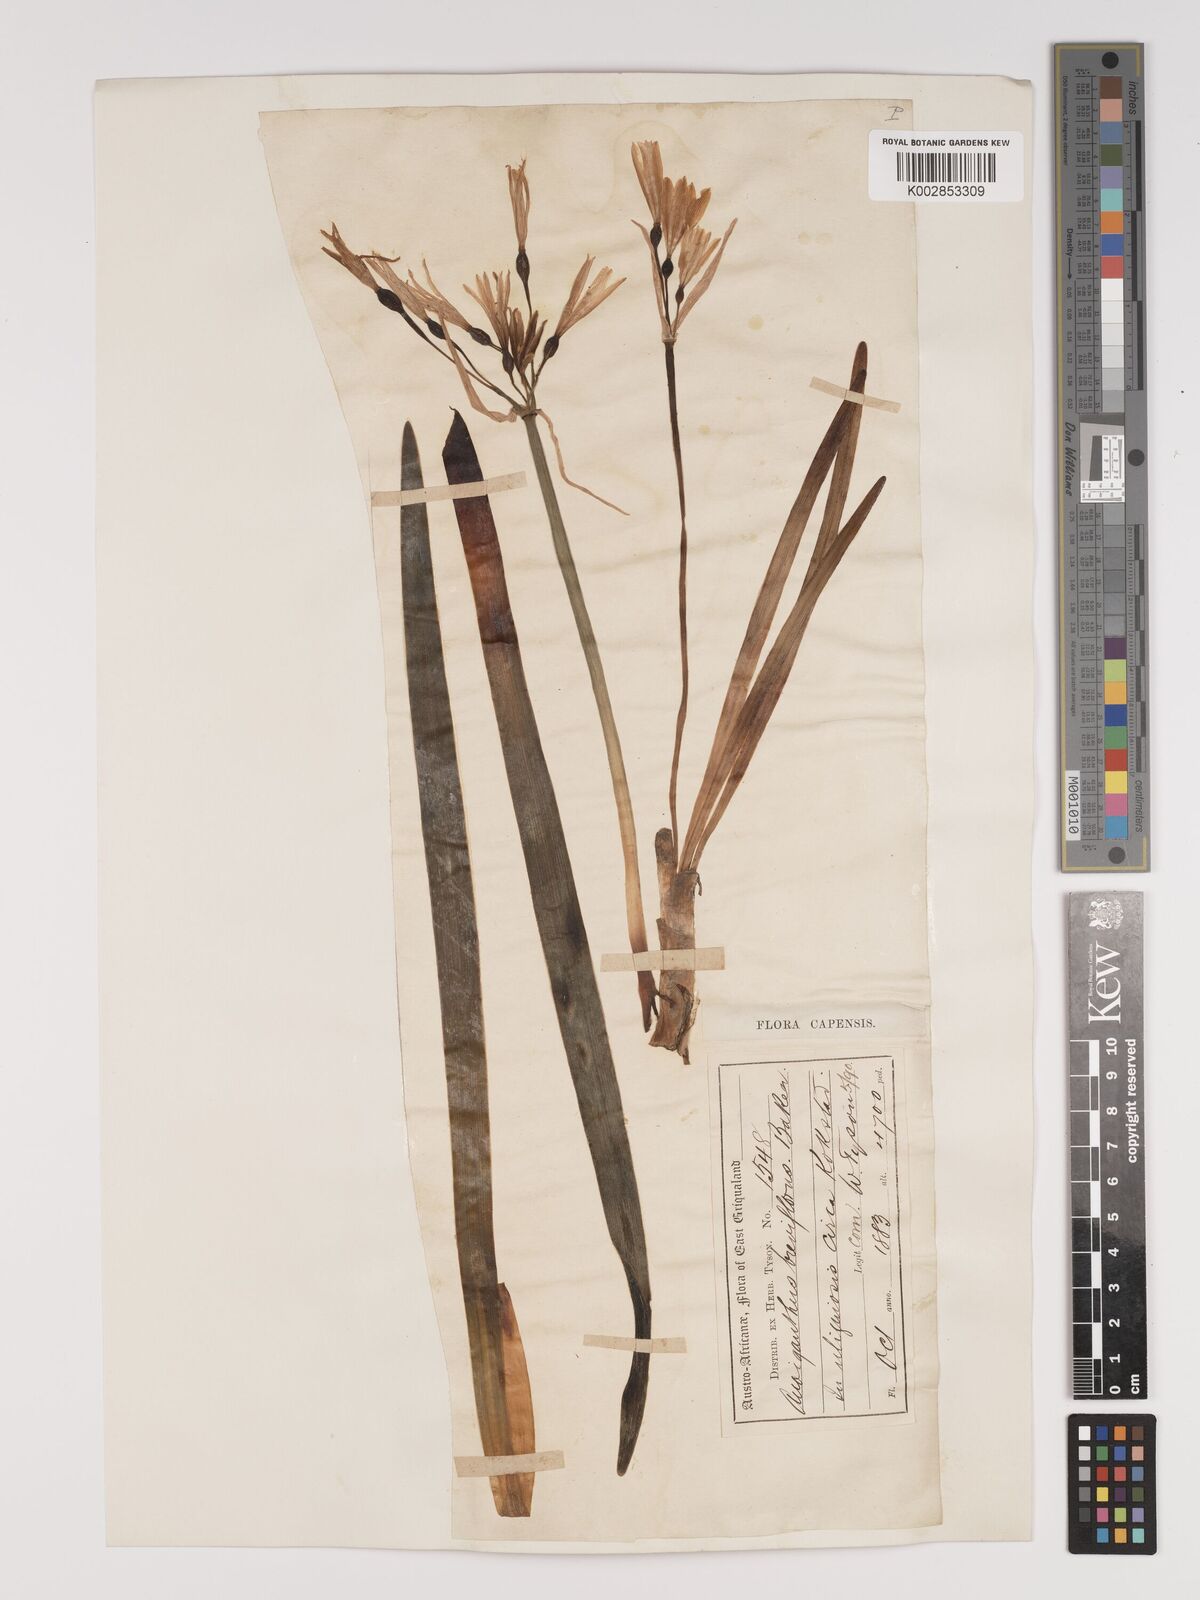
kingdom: Plantae
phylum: Tracheophyta
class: Liliopsida
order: Asparagales
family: Amaryllidaceae
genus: Cyrtanthus
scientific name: Cyrtanthus breviflorus
